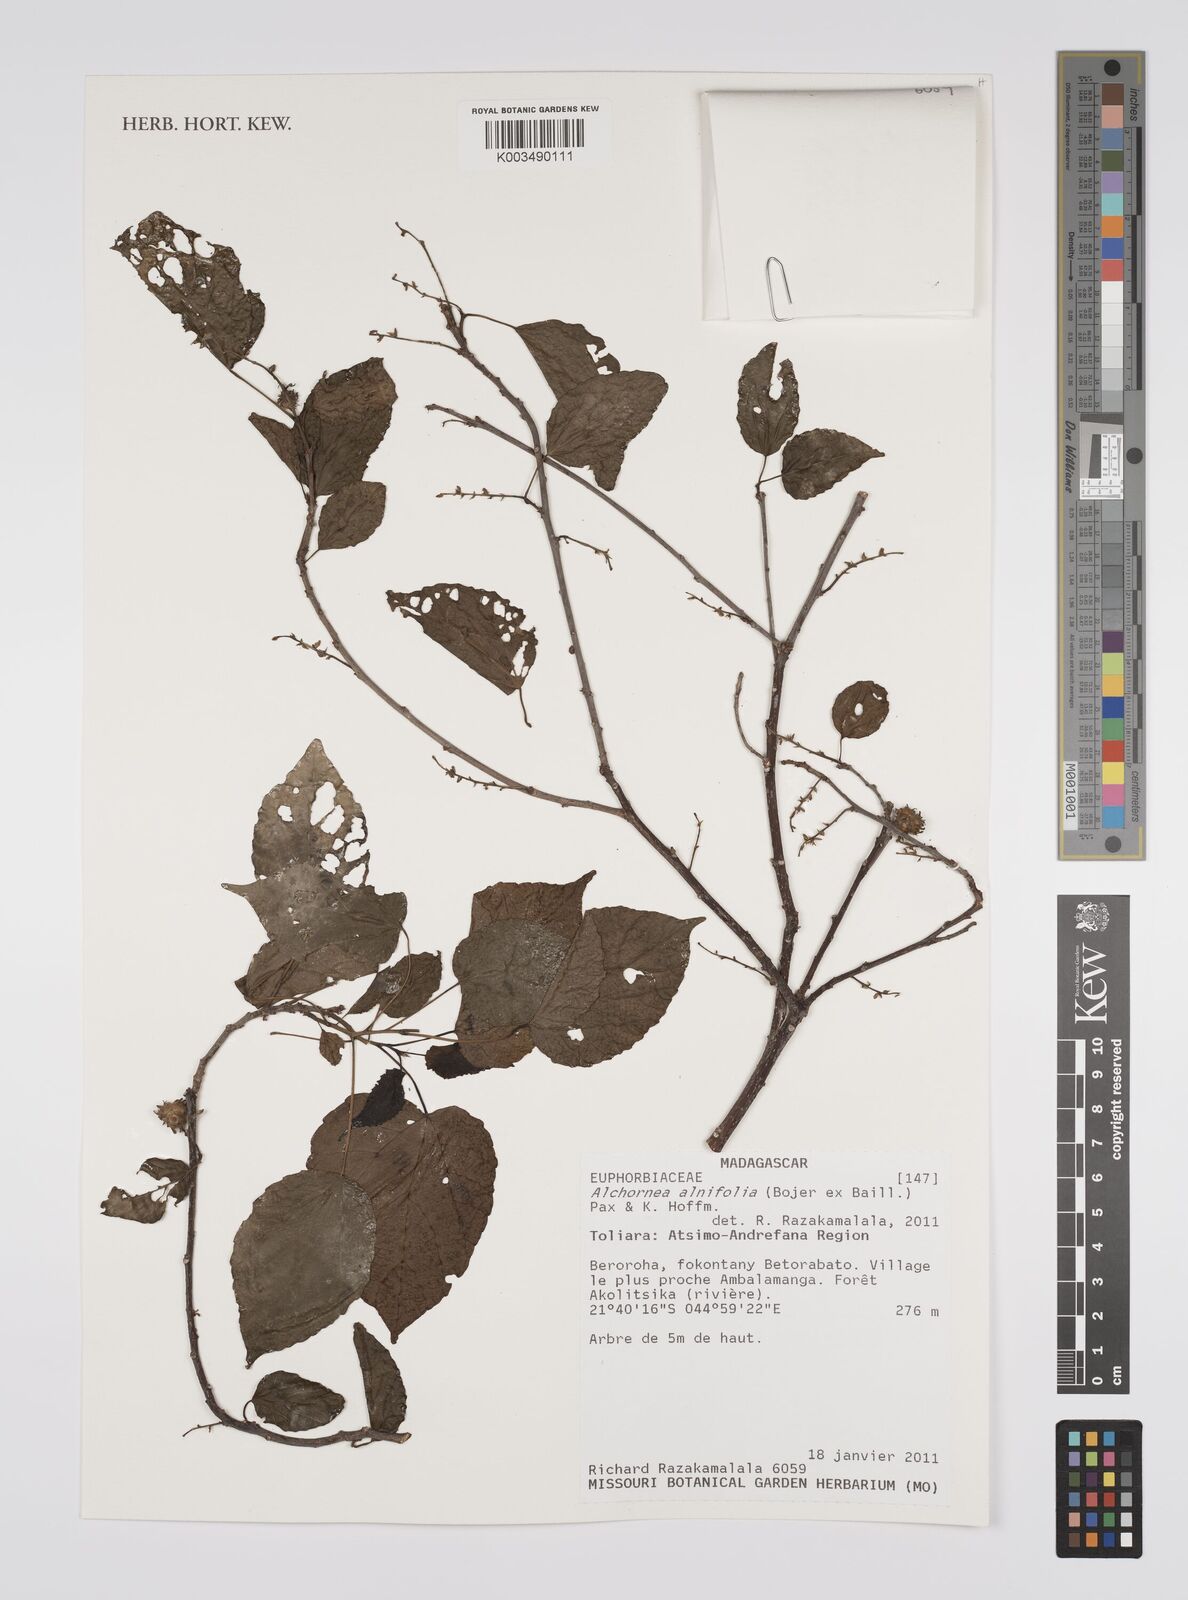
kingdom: Plantae
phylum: Tracheophyta
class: Magnoliopsida
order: Malpighiales
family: Euphorbiaceae
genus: Alchornea
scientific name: Alchornea alnifolia
